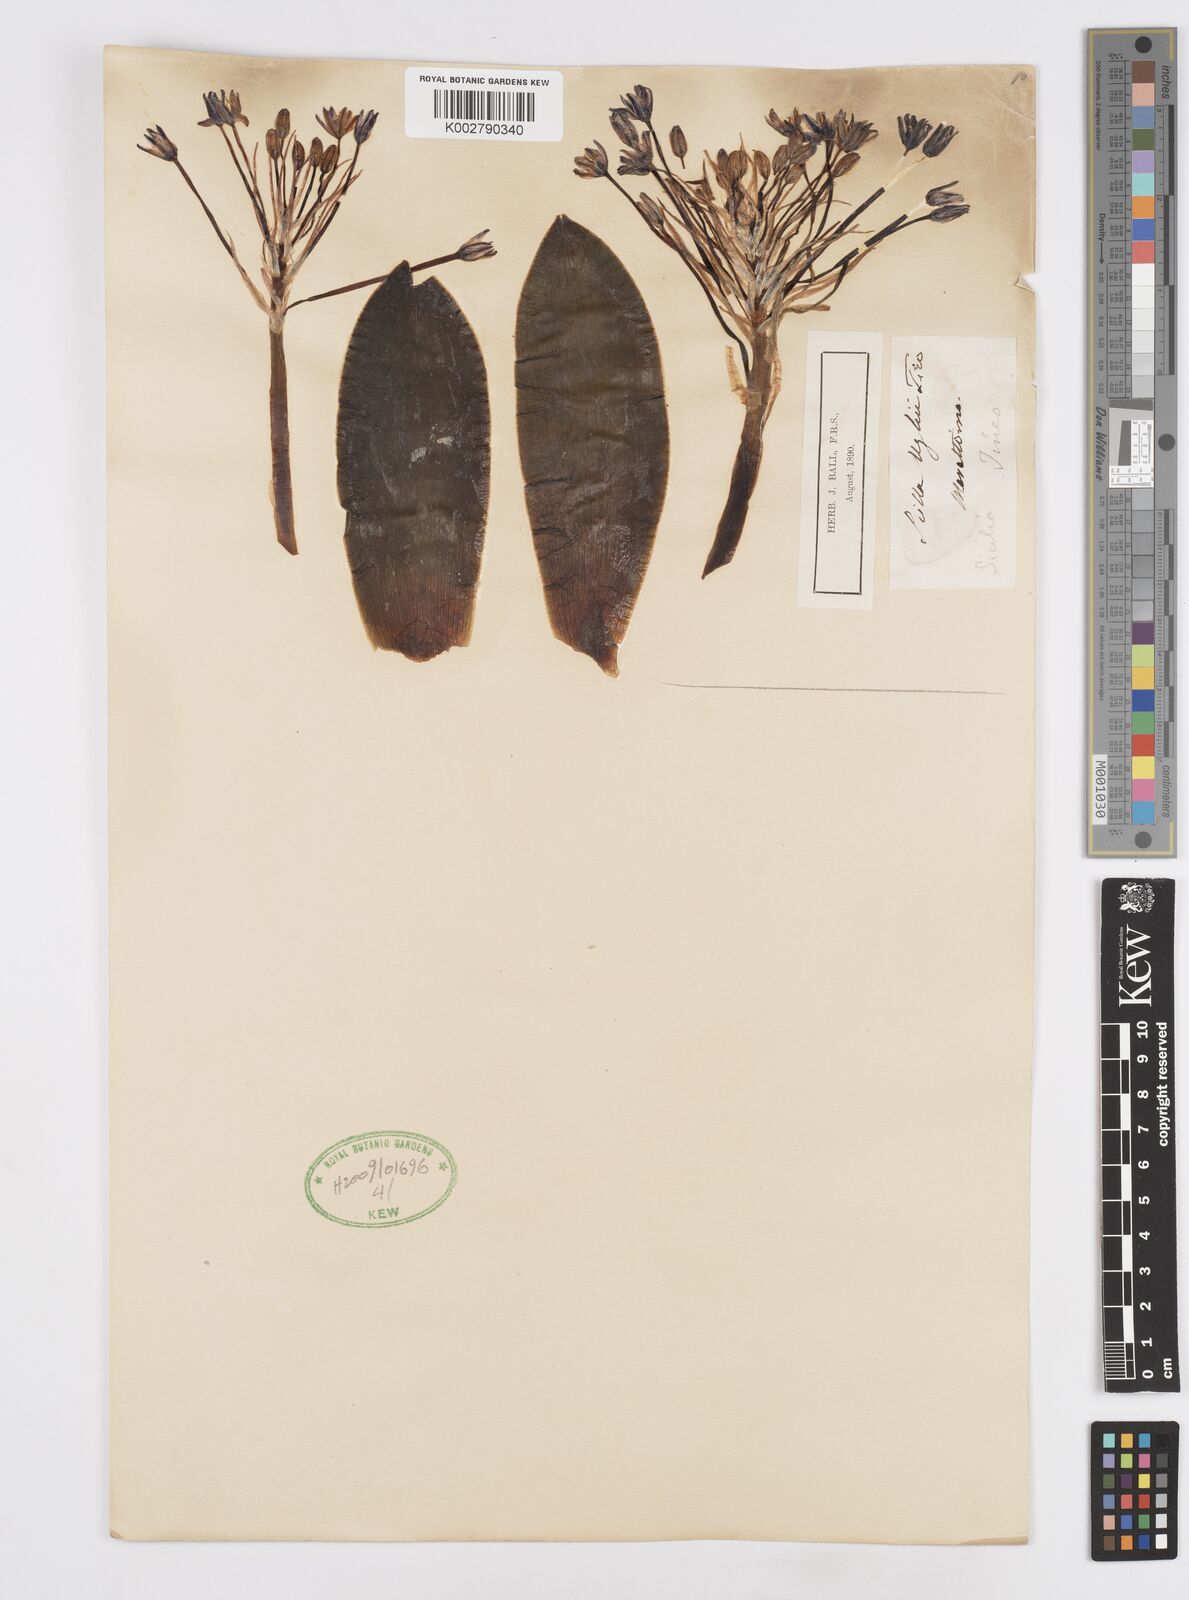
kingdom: Plantae
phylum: Tracheophyta
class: Liliopsida
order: Asparagales
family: Asparagaceae
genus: Scilla
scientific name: Scilla
